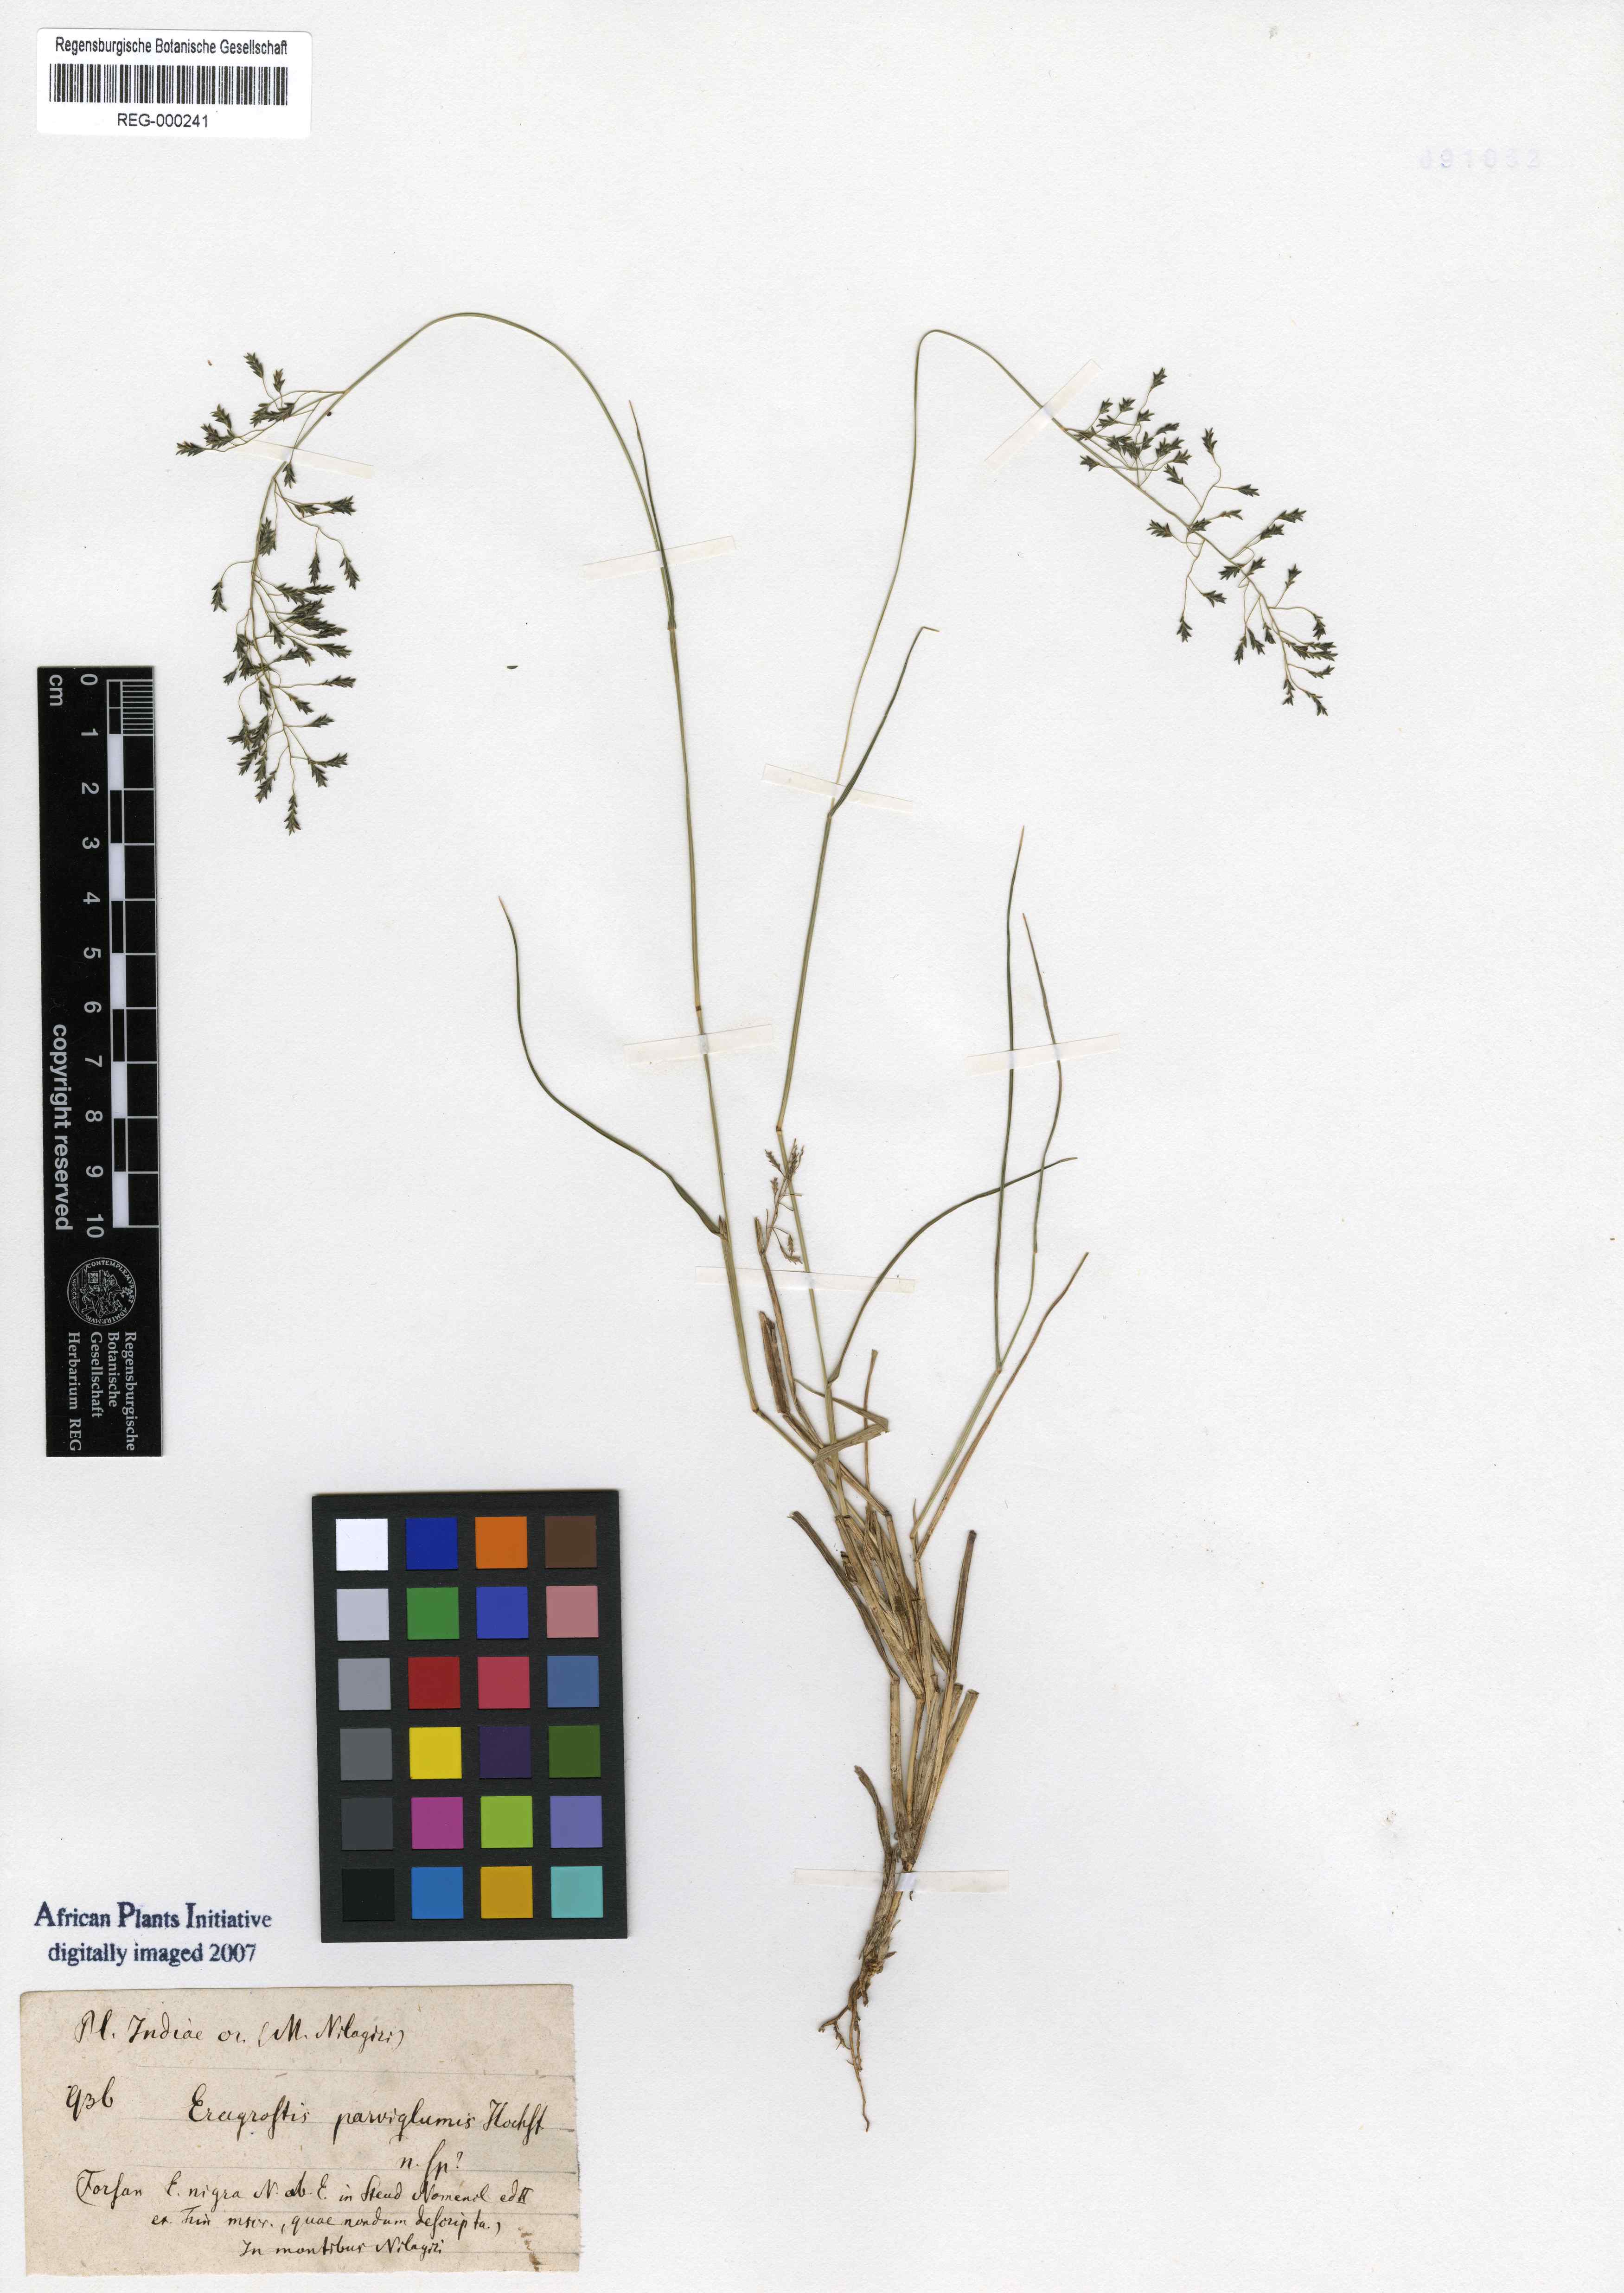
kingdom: Plantae
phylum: Tracheophyta
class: Liliopsida
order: Poales
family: Poaceae
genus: Eragrostis
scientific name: Eragrostis tenuifolia
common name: Elastic grass
